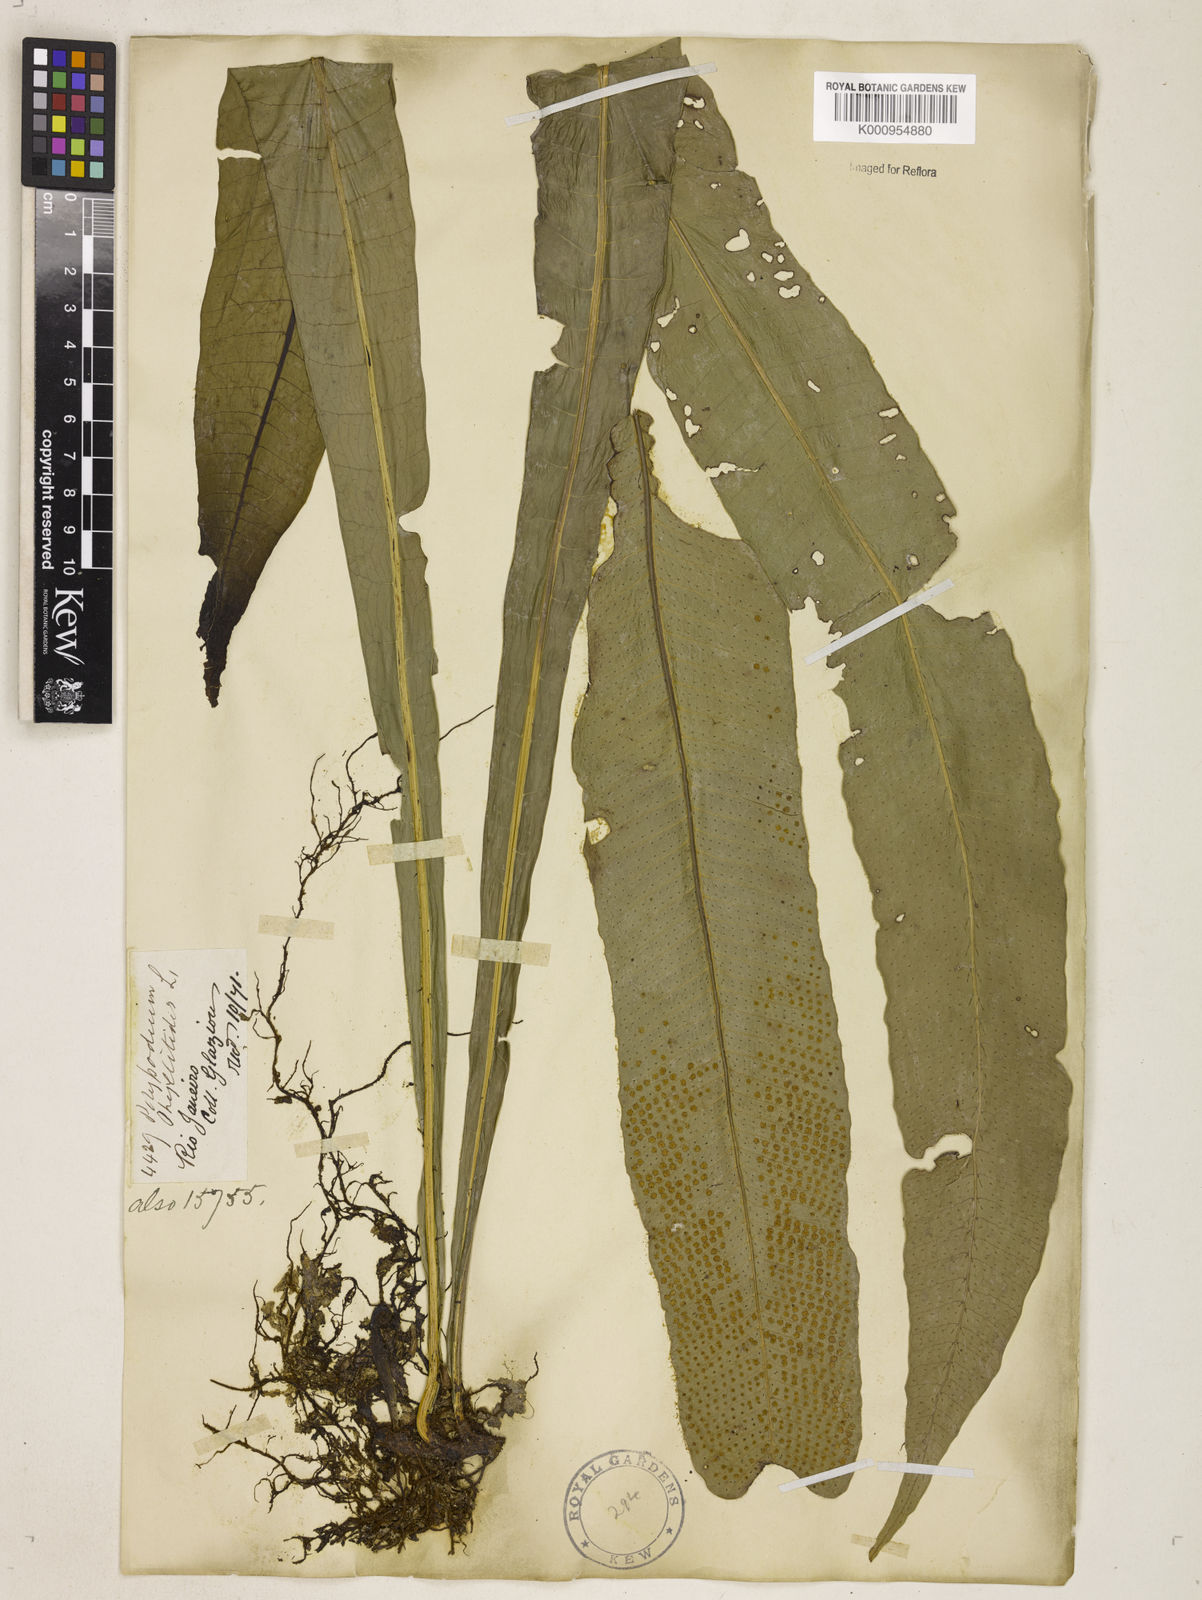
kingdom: Plantae
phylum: Tracheophyta
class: Polypodiopsida
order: Polypodiales
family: Polypodiaceae
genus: Campyloneurum
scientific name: Campyloneurum phyllitidis
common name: Cow-tongue fern
